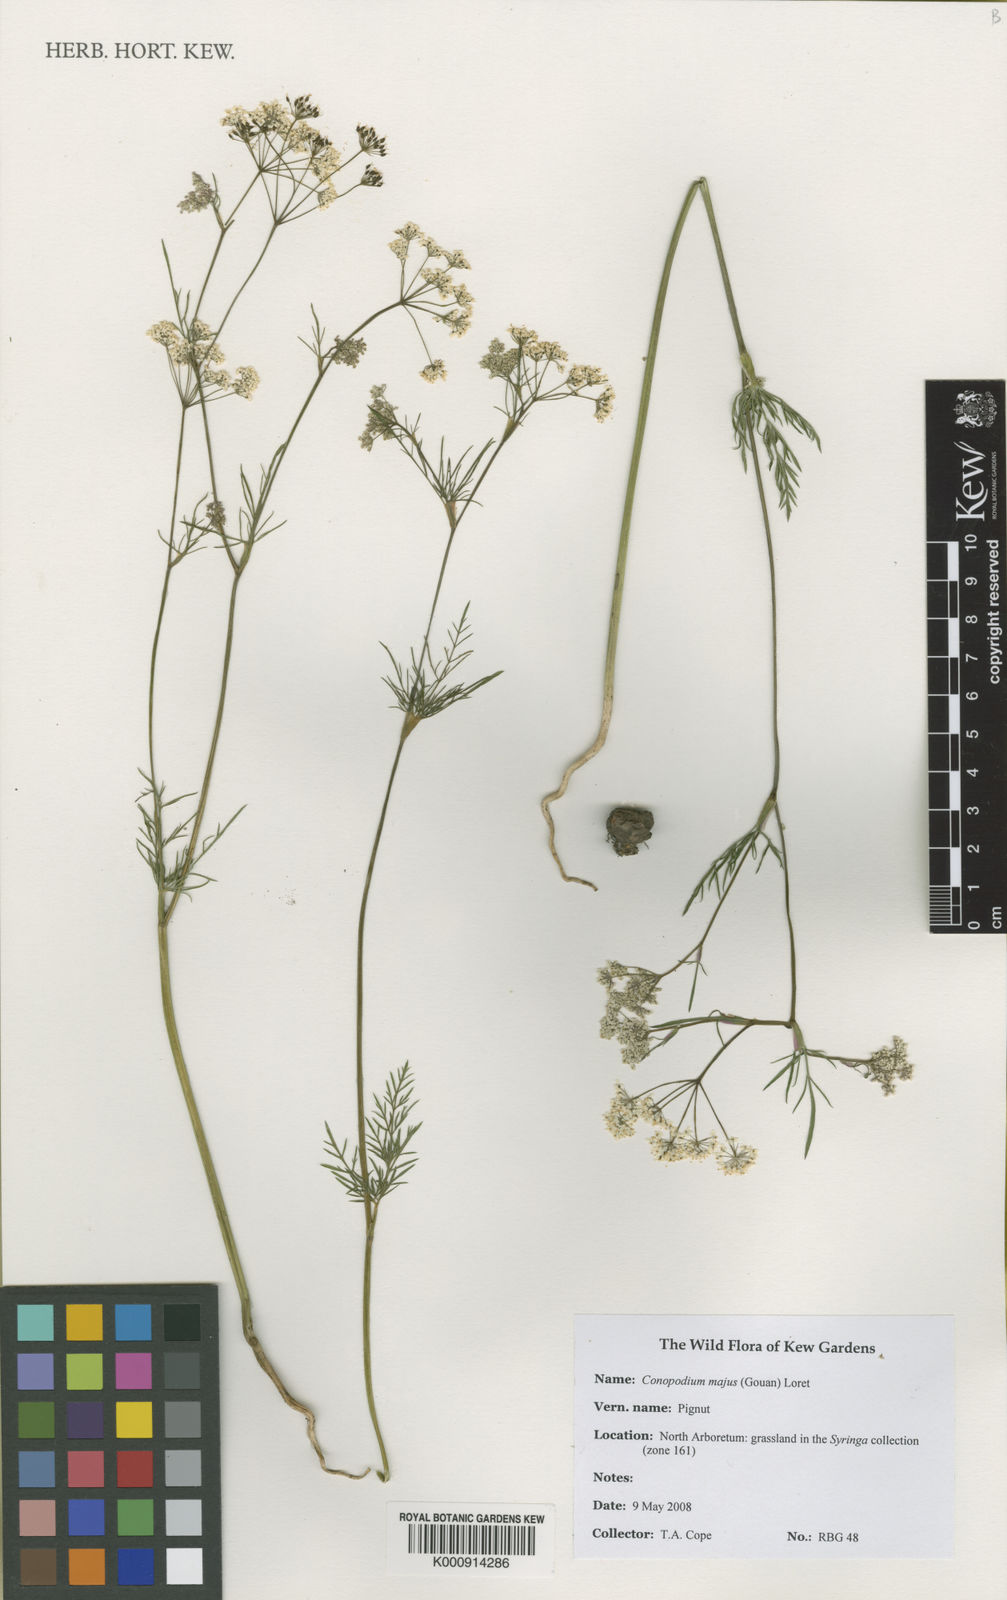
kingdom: Plantae
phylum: Tracheophyta
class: Magnoliopsida
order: Apiales
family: Apiaceae
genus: Conopodium
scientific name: Conopodium majus
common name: Pignut
